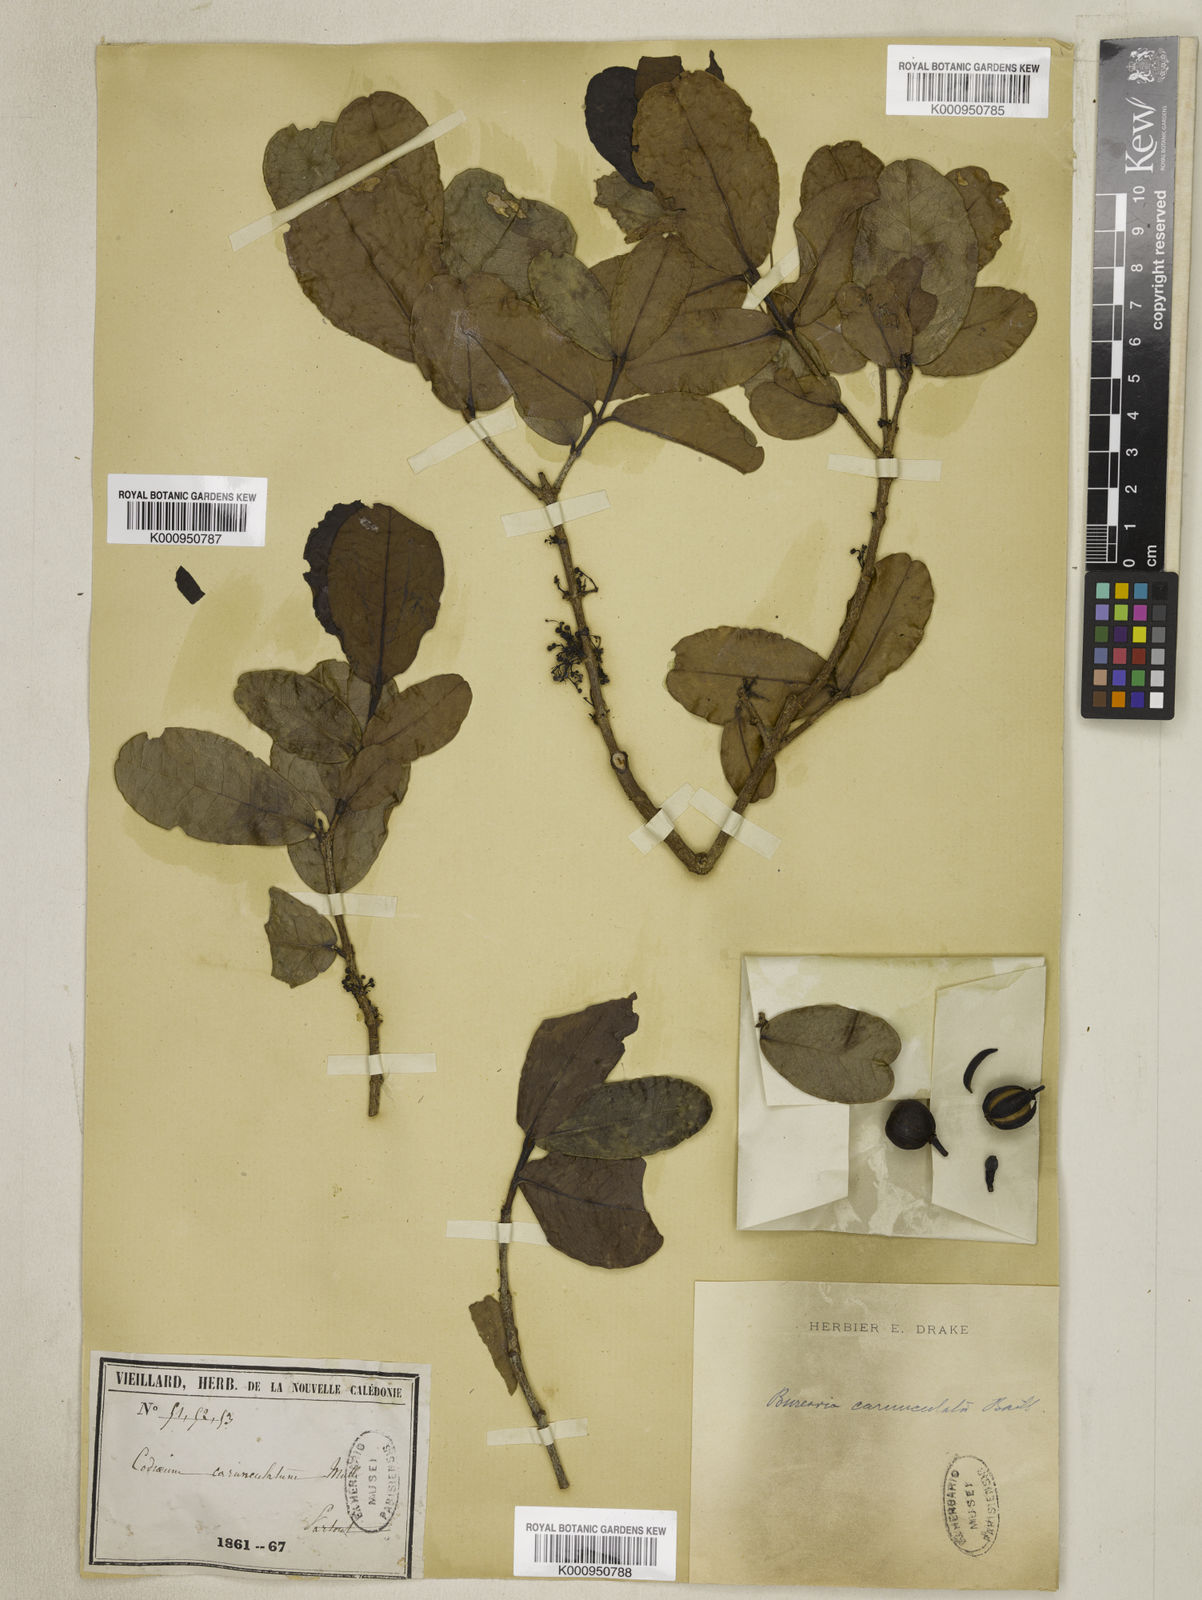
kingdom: Plantae
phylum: Tracheophyta
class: Magnoliopsida
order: Malpighiales
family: Picrodendraceae
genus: Austrobuxus
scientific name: Austrobuxus carunculatus
